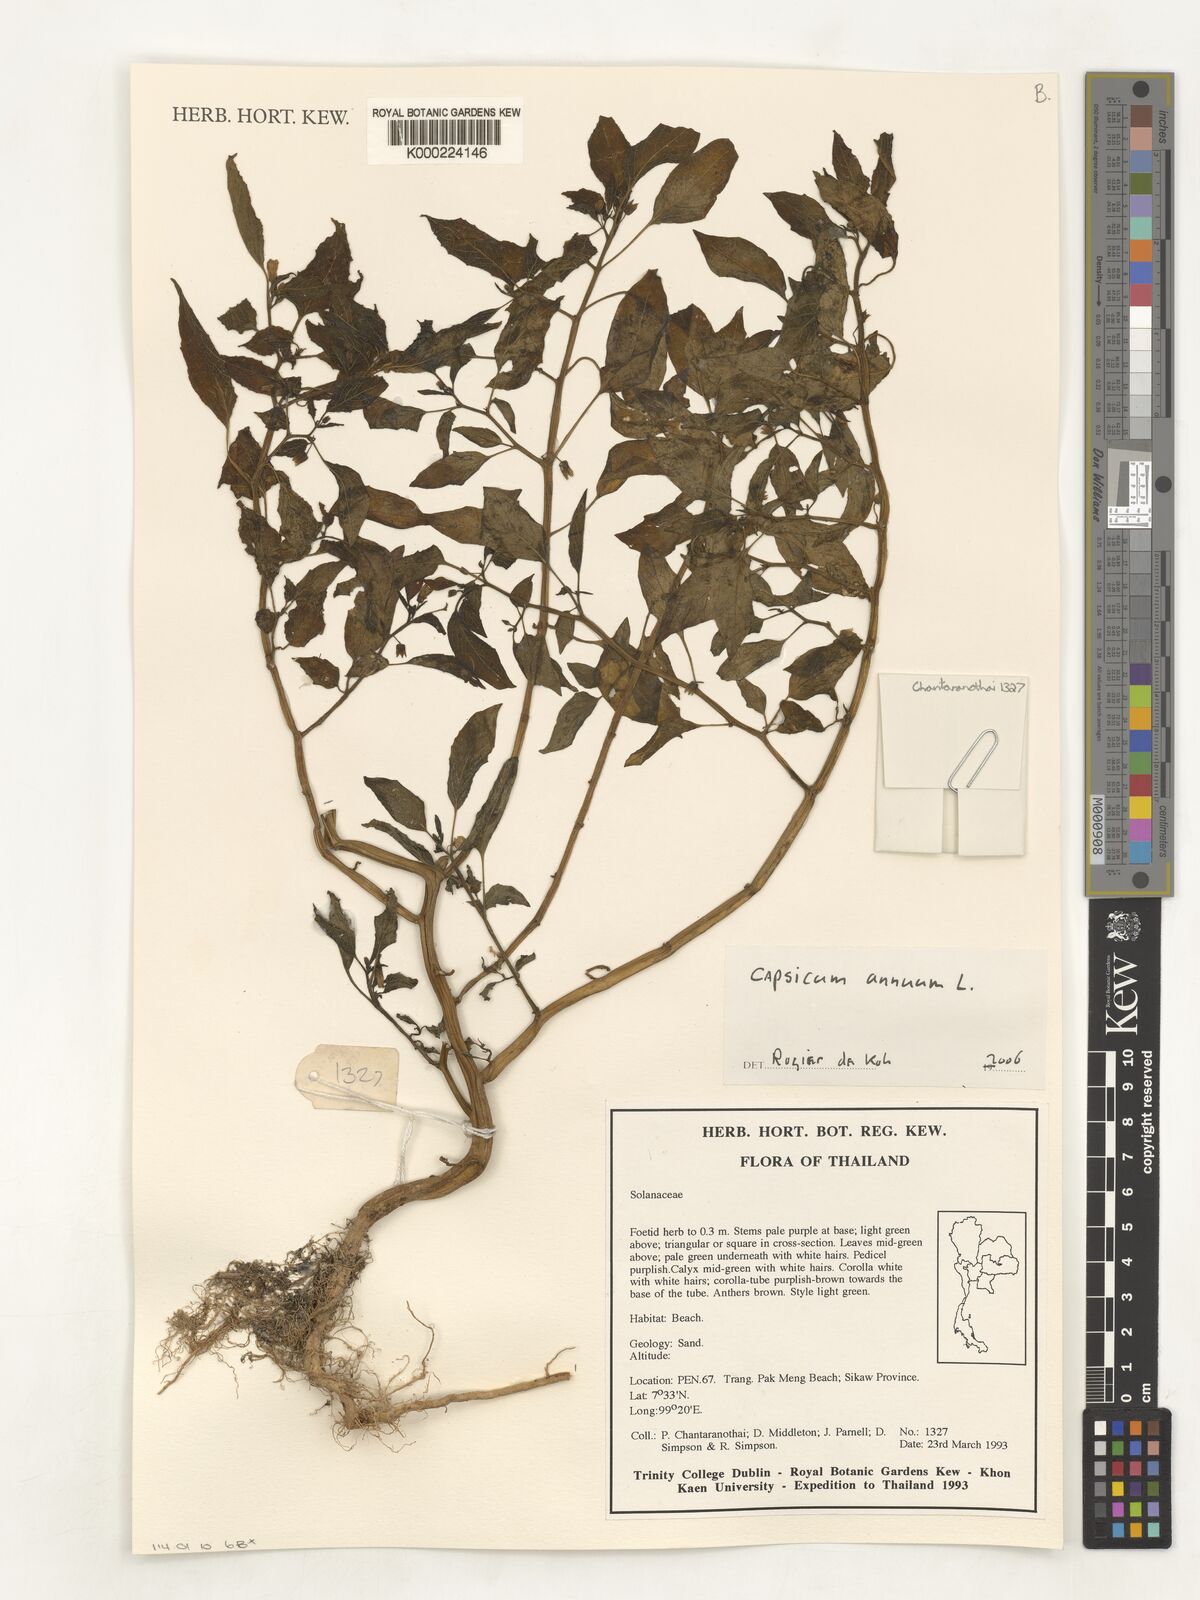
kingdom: Plantae
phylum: Tracheophyta
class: Magnoliopsida
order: Solanales
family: Solanaceae
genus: Capsicum
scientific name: Capsicum annuum
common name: Sweet pepper
